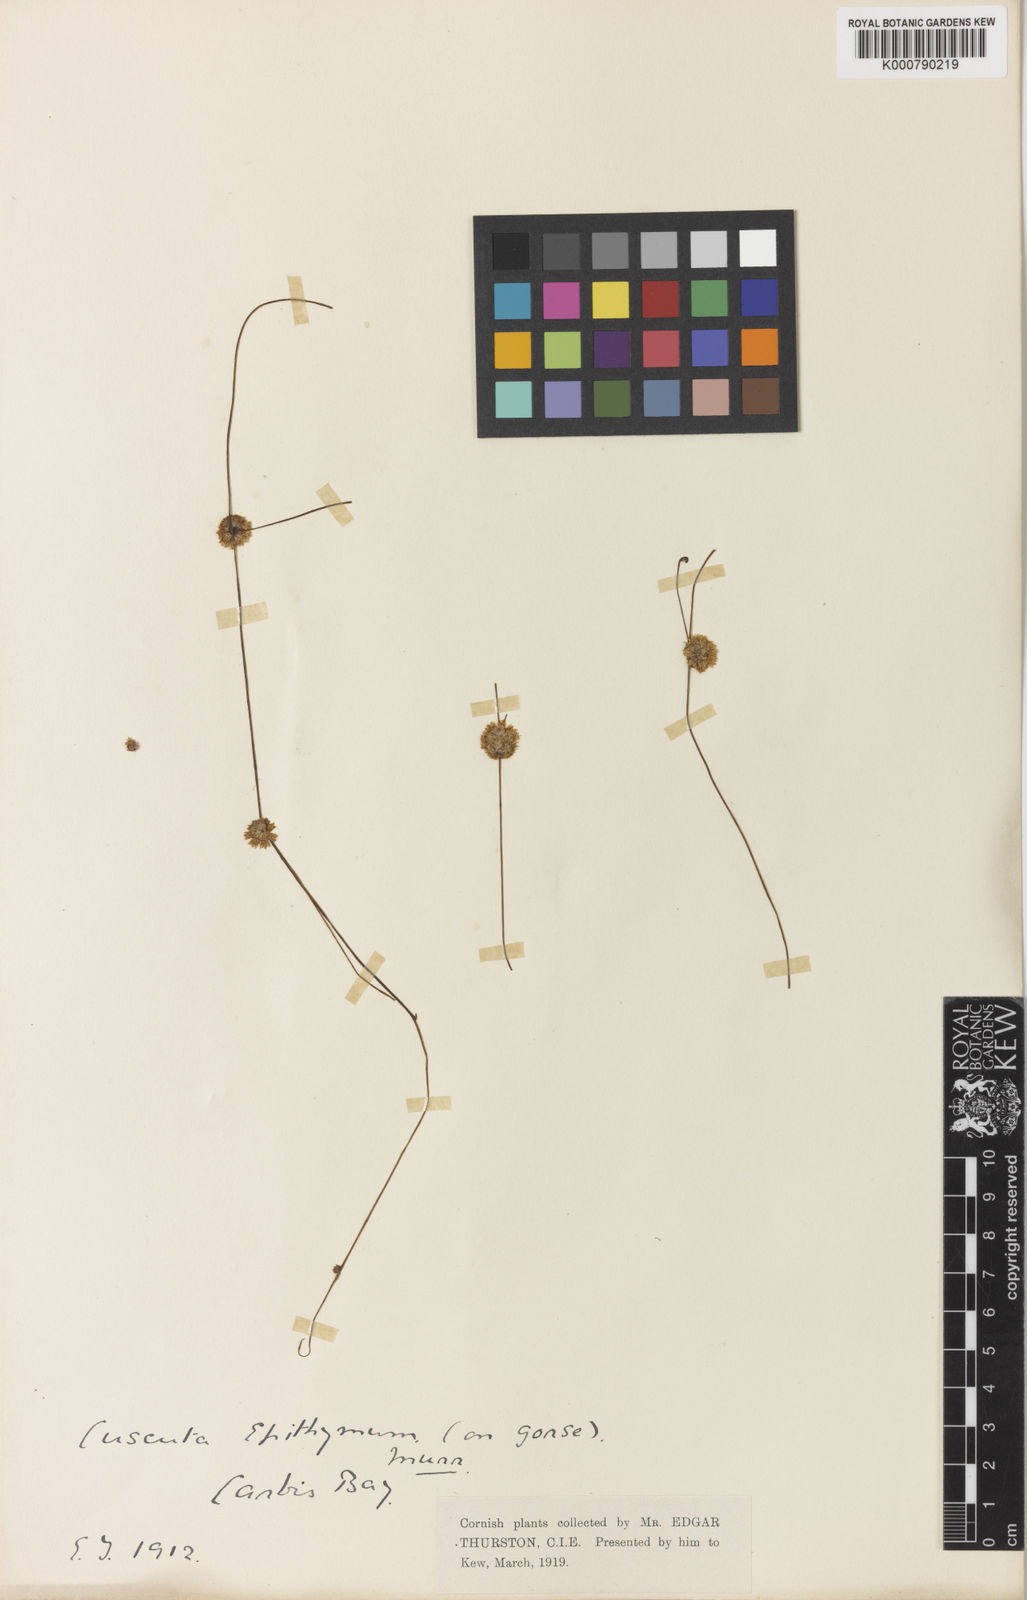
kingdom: Plantae
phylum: Tracheophyta
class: Magnoliopsida
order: Solanales
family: Convolvulaceae
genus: Cuscuta
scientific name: Cuscuta epithymum
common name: Clover dodder
